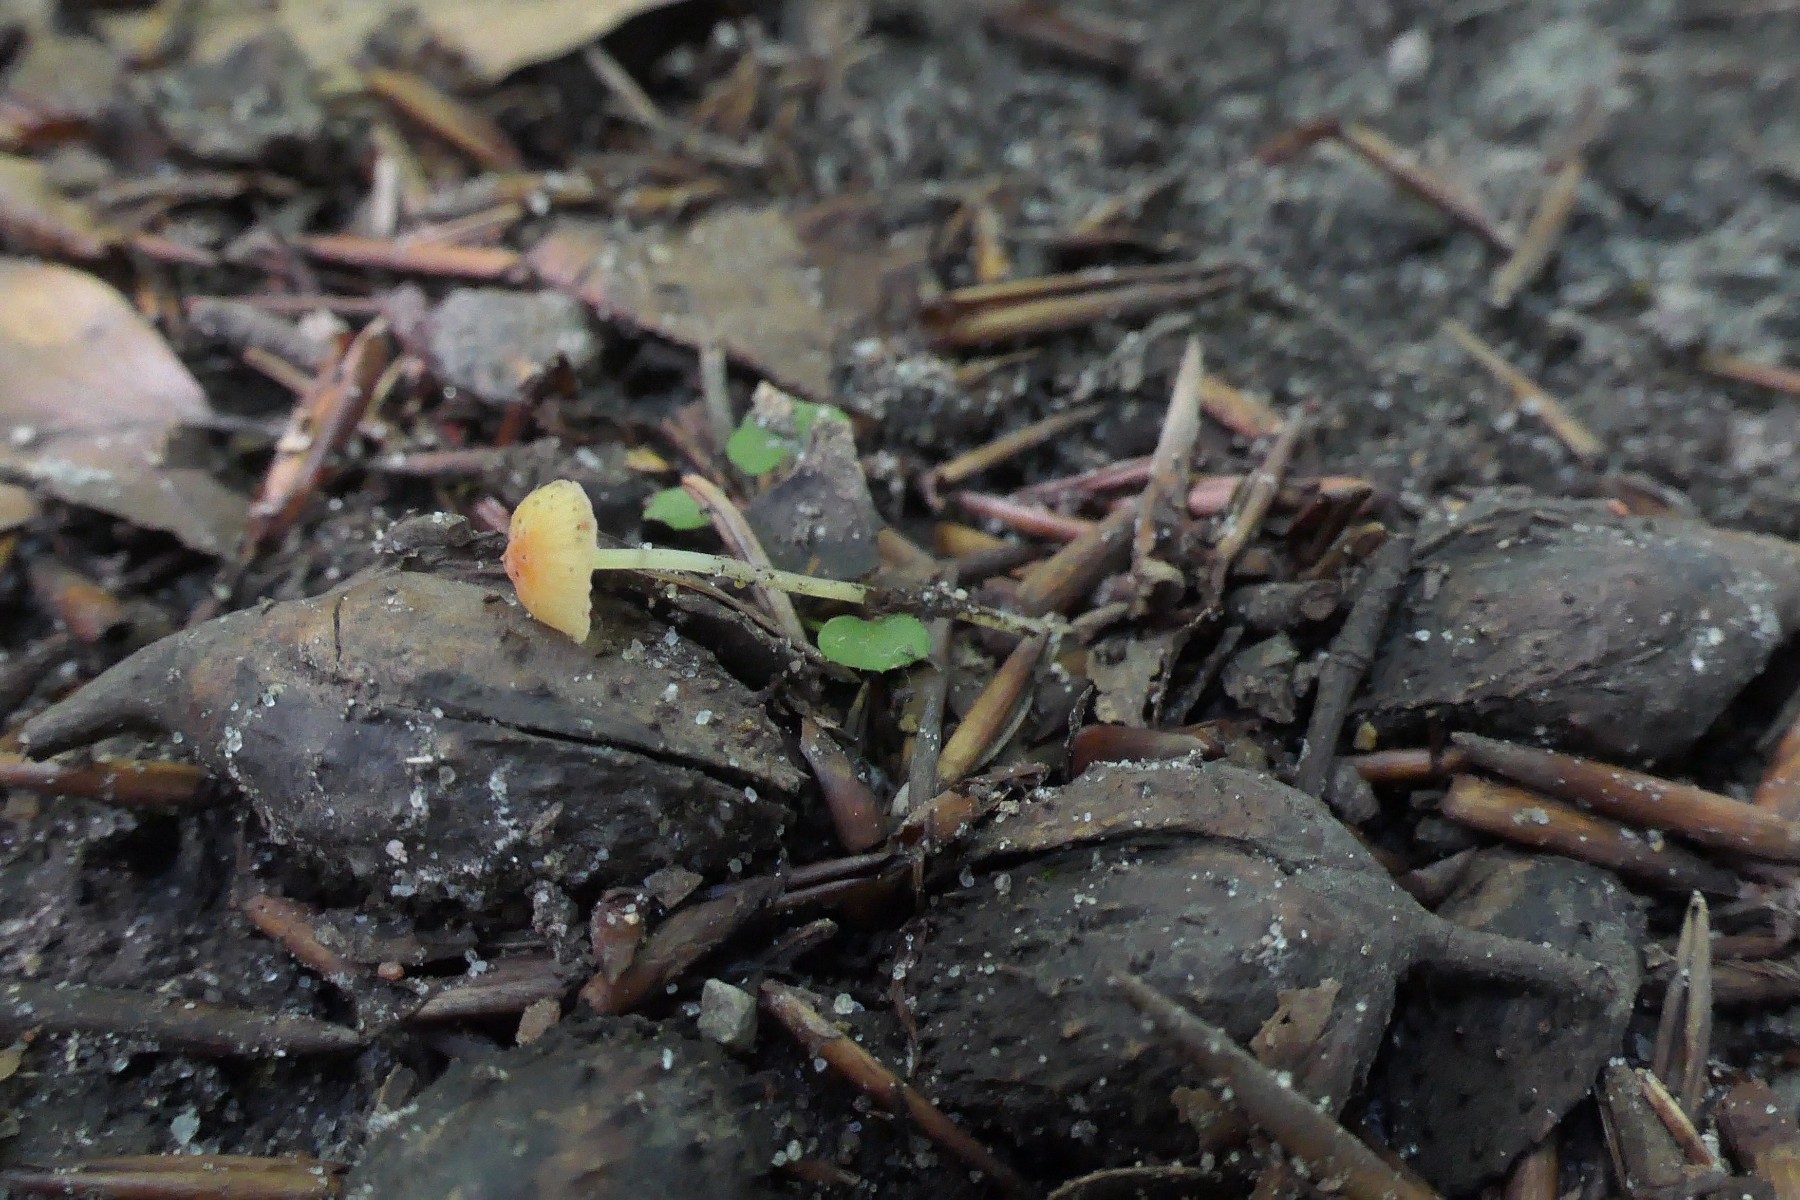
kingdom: Fungi
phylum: Basidiomycota
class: Agaricomycetes
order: Agaricales
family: Mycenaceae
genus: Mycena
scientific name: Mycena acicula
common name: orange huesvamp
